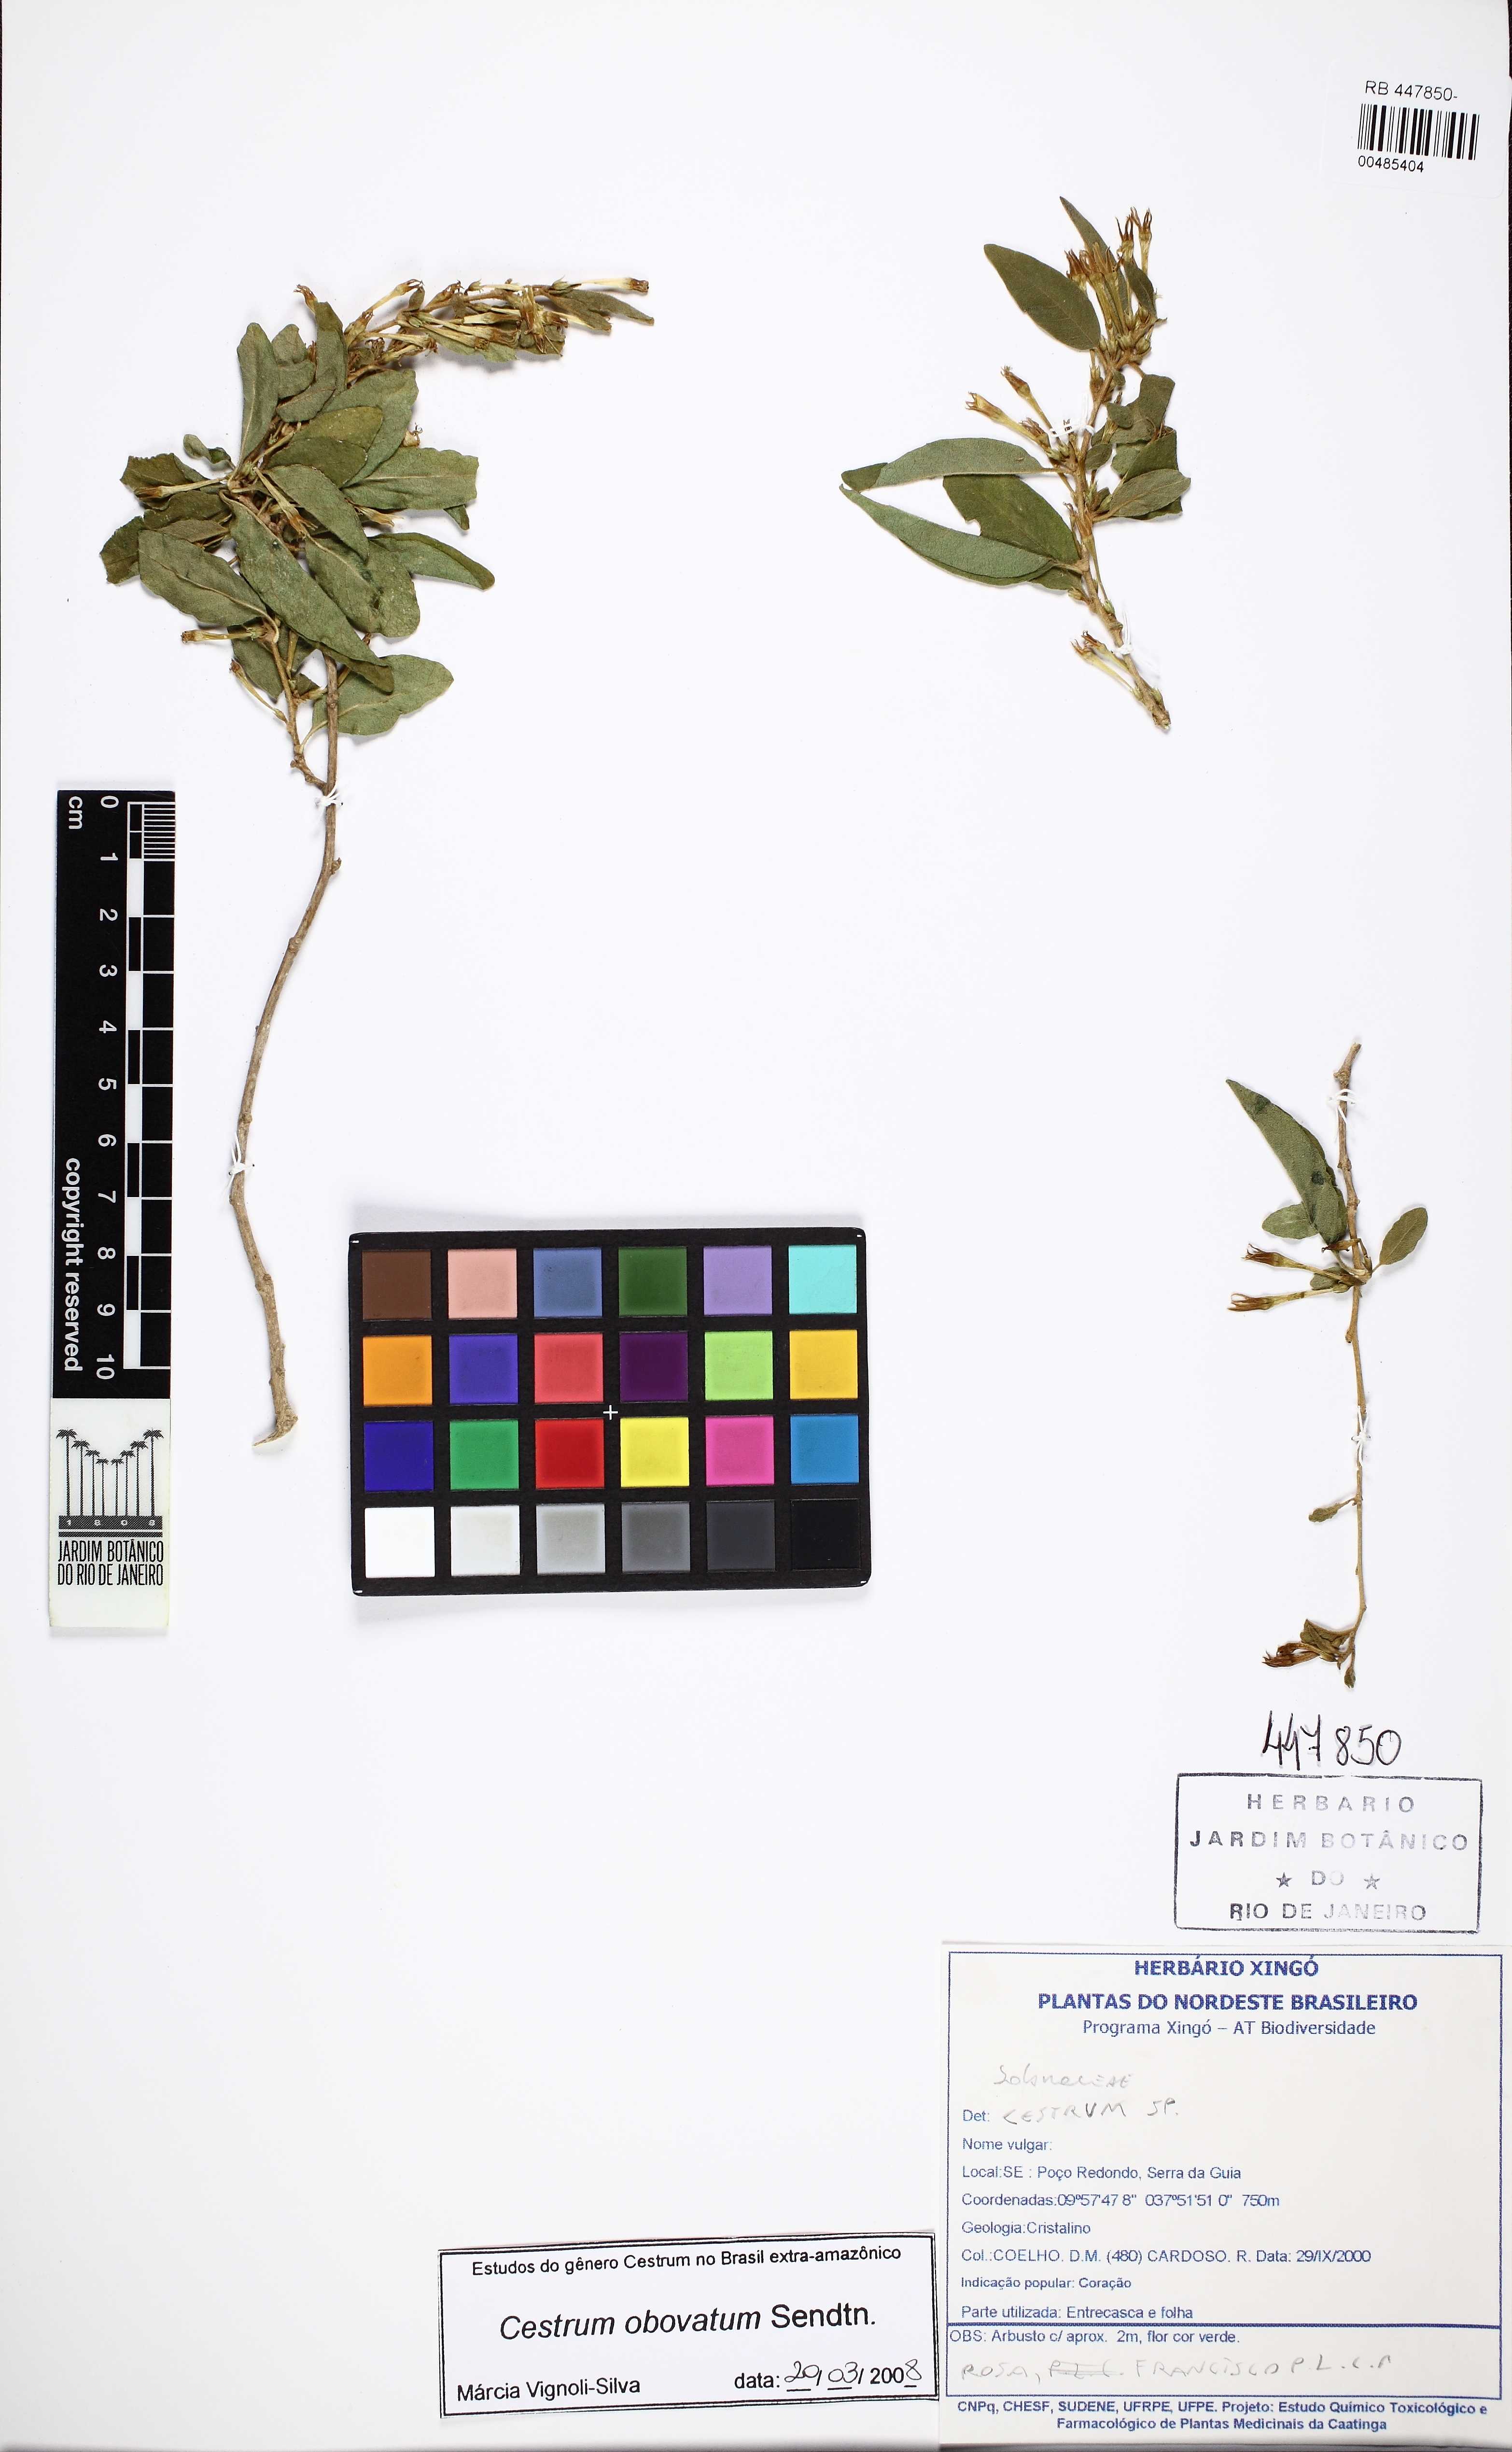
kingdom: Plantae
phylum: Tracheophyta
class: Magnoliopsida
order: Solanales
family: Solanaceae
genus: Cestrum
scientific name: Cestrum obovatum
